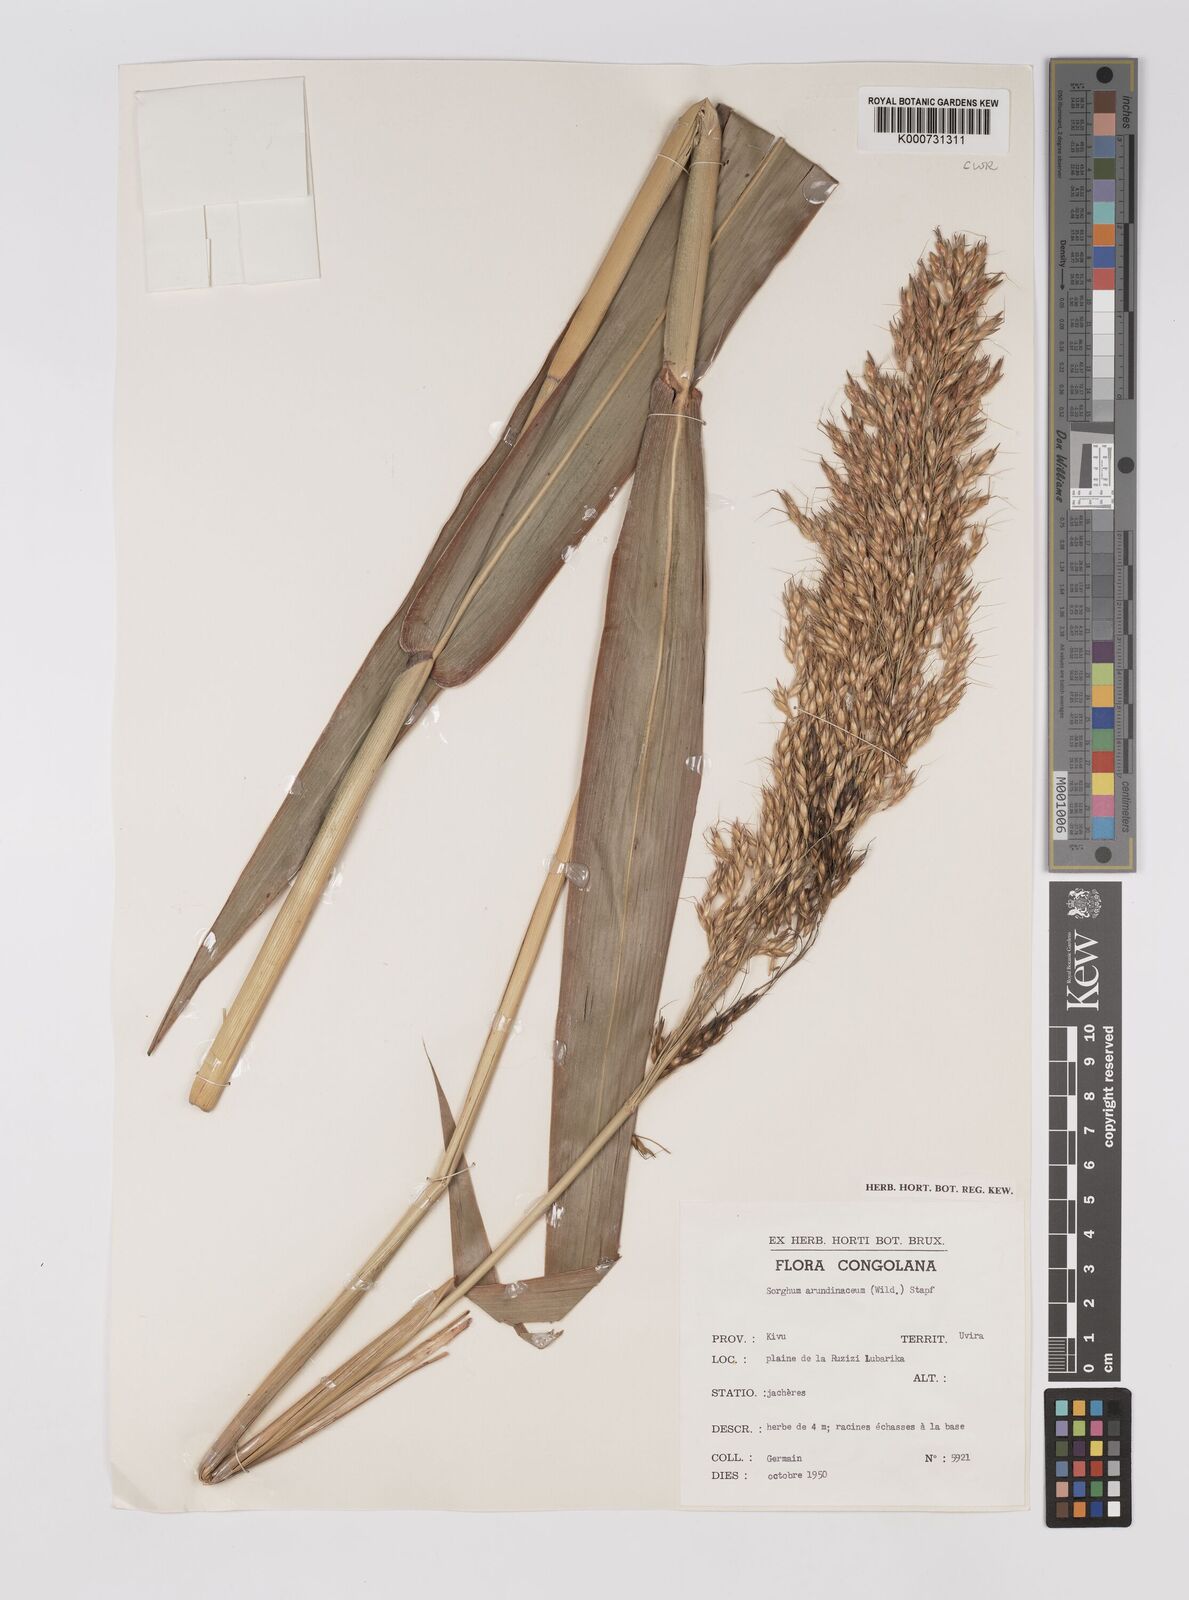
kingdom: Plantae
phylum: Tracheophyta
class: Liliopsida
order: Poales
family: Poaceae
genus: Sorghum
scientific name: Sorghum arundinaceum
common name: Sorghum
